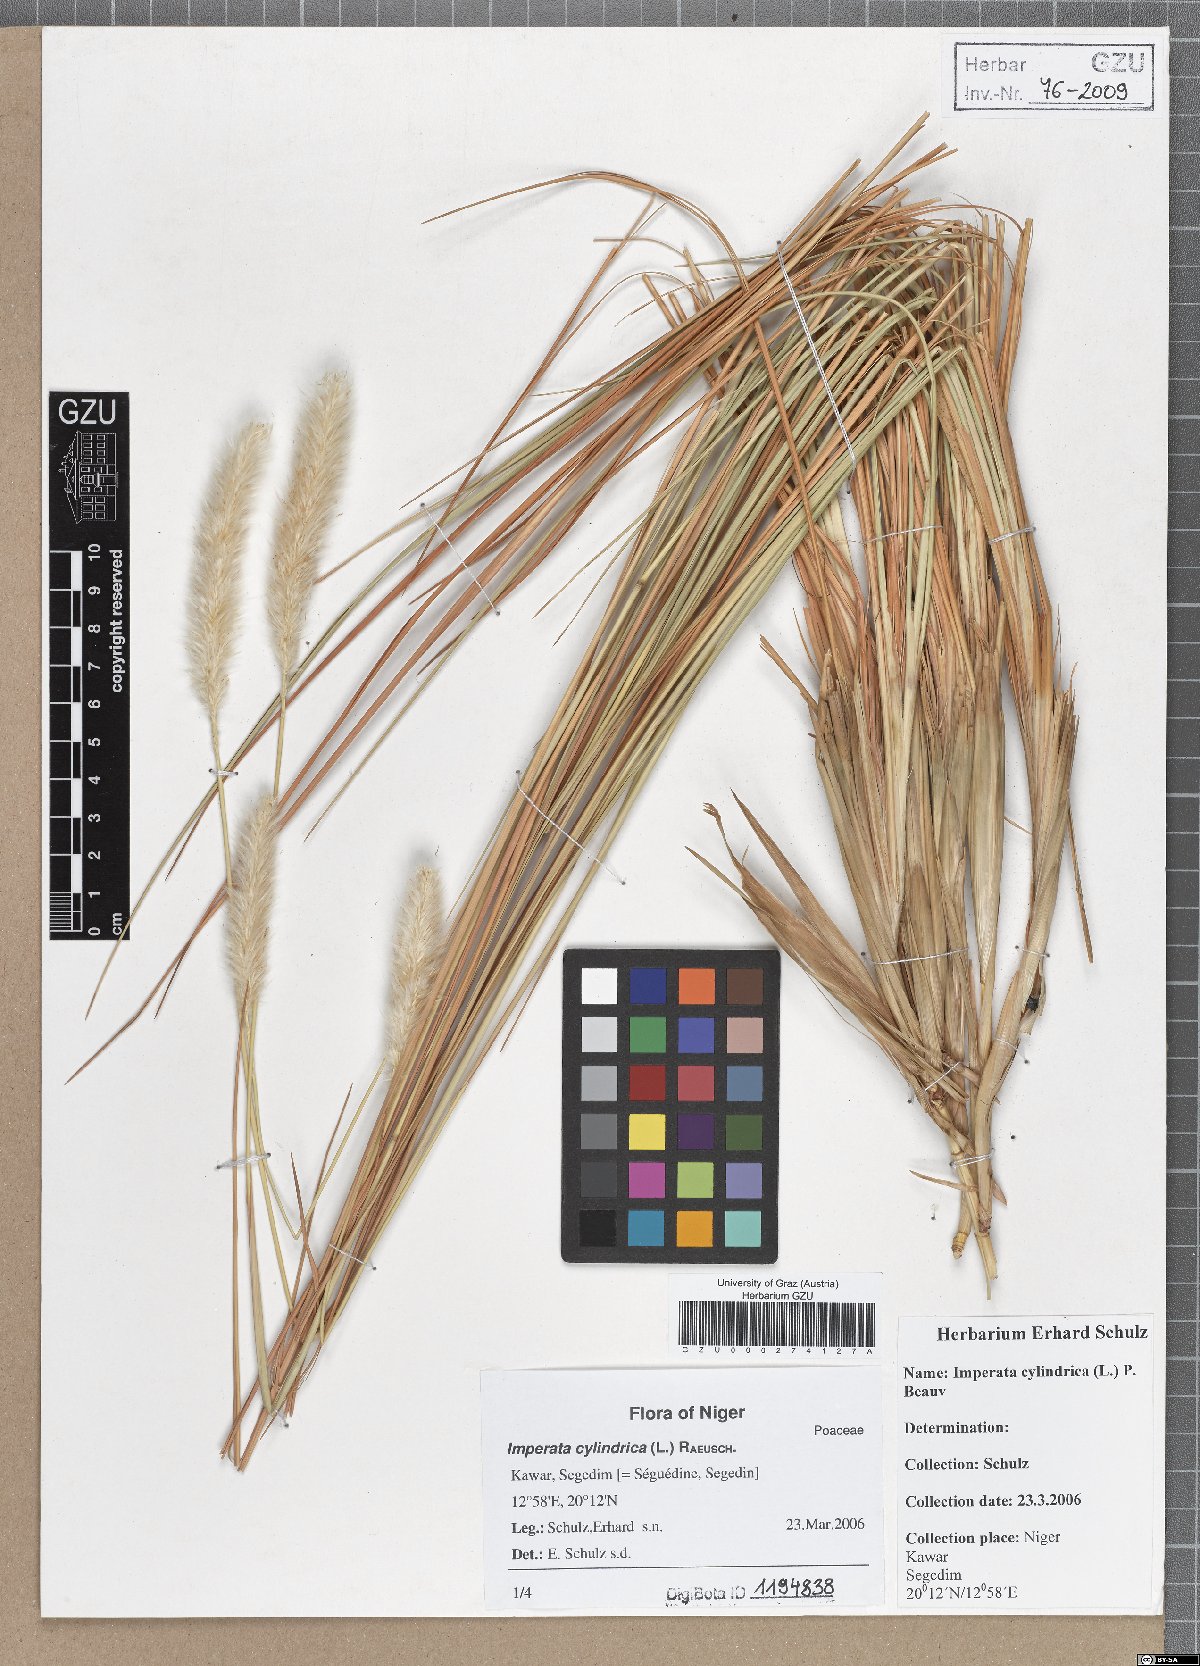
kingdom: Plantae
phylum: Tracheophyta
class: Liliopsida
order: Poales
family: Poaceae
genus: Imperata
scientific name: Imperata cylindrica
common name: Cogongrass
